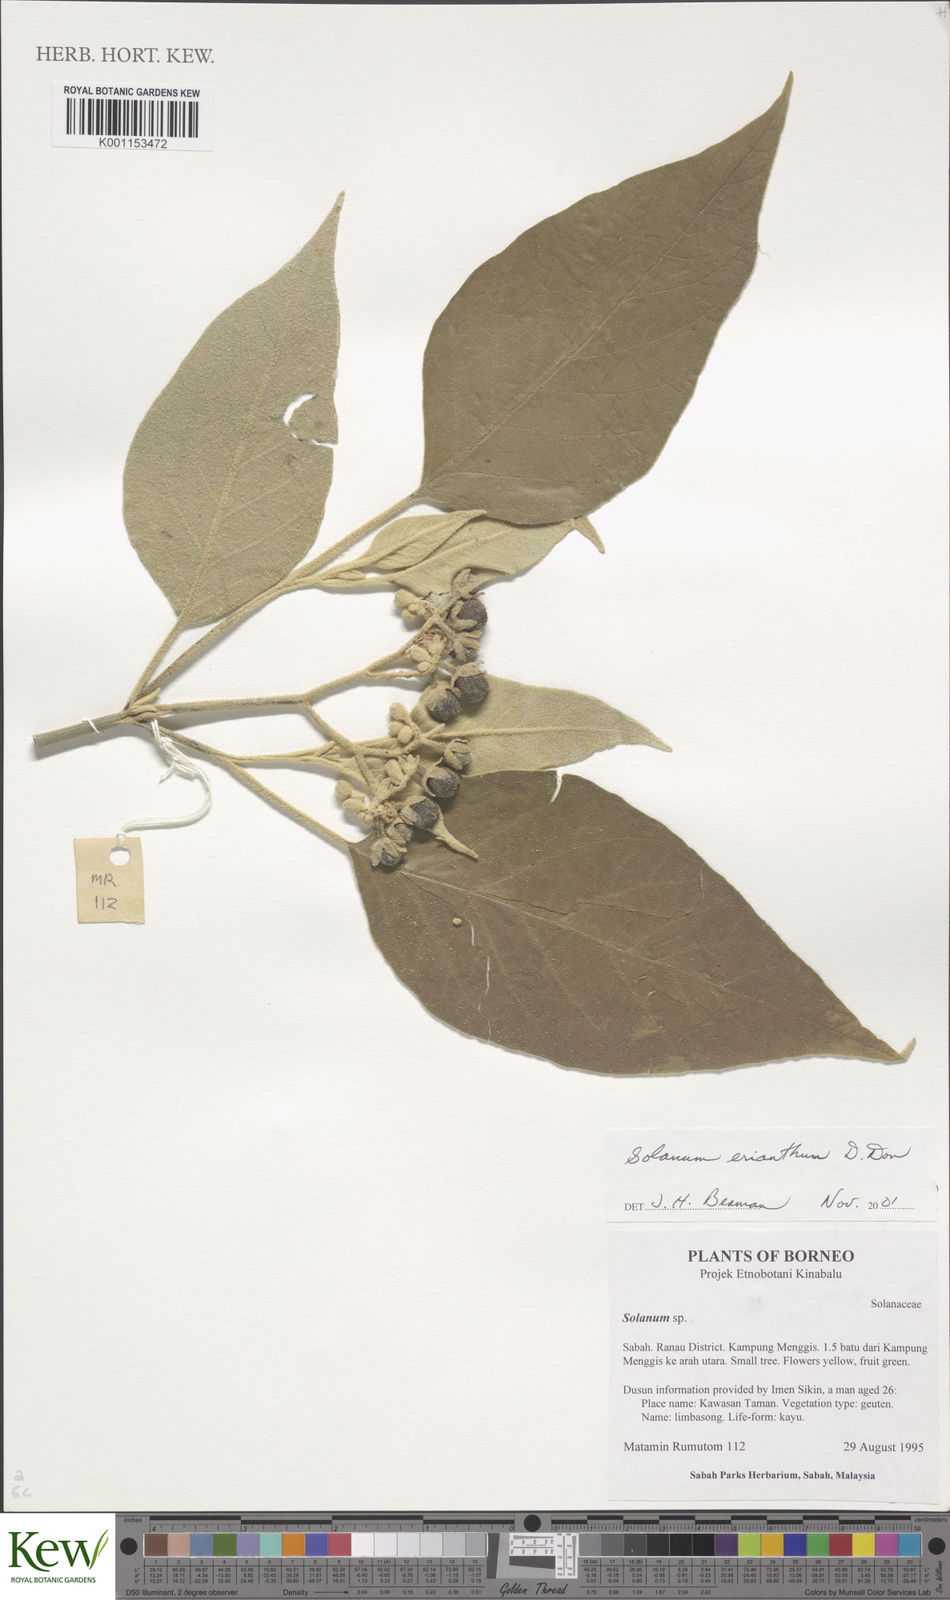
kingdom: Plantae
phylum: Tracheophyta
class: Magnoliopsida
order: Solanales
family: Solanaceae
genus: Solanum
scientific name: Solanum erianthum
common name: Tobacco-tree
